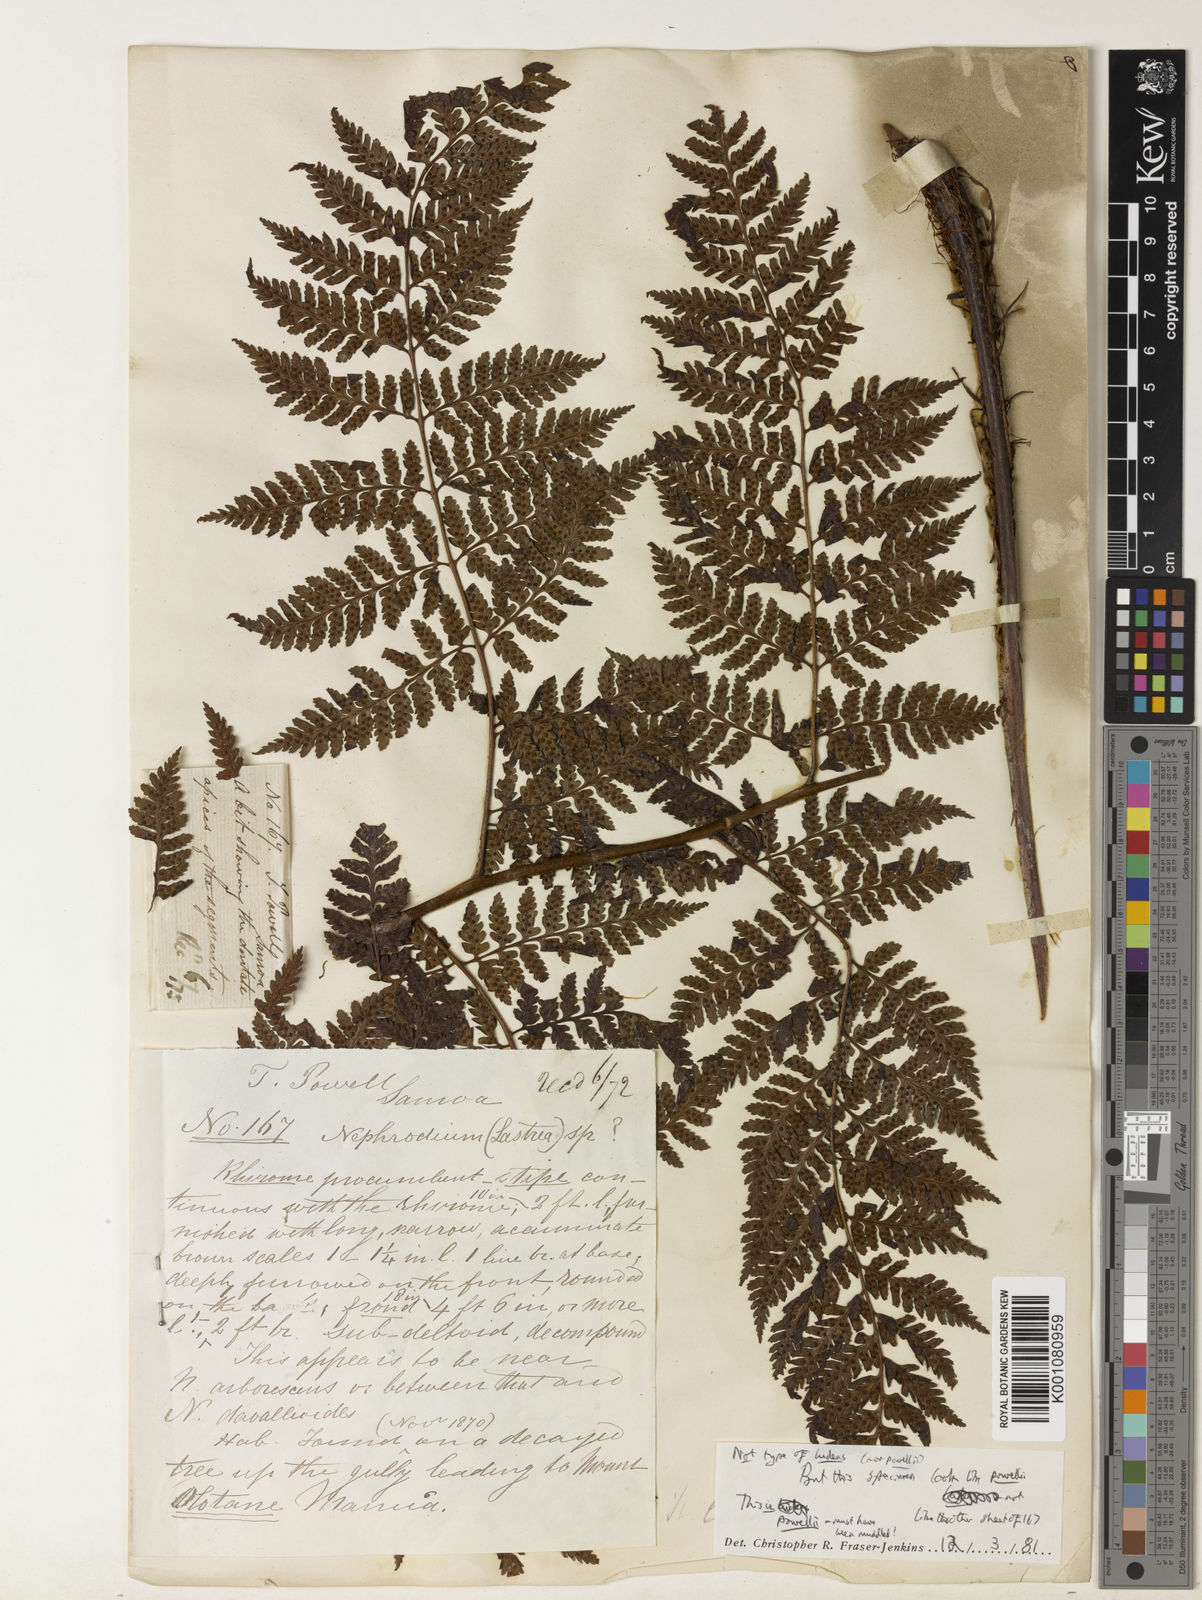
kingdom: Plantae
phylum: Tracheophyta
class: Polypodiopsida
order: Polypodiales
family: Dryopteridaceae
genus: Dryopteris
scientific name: Dryopteris arborescens
